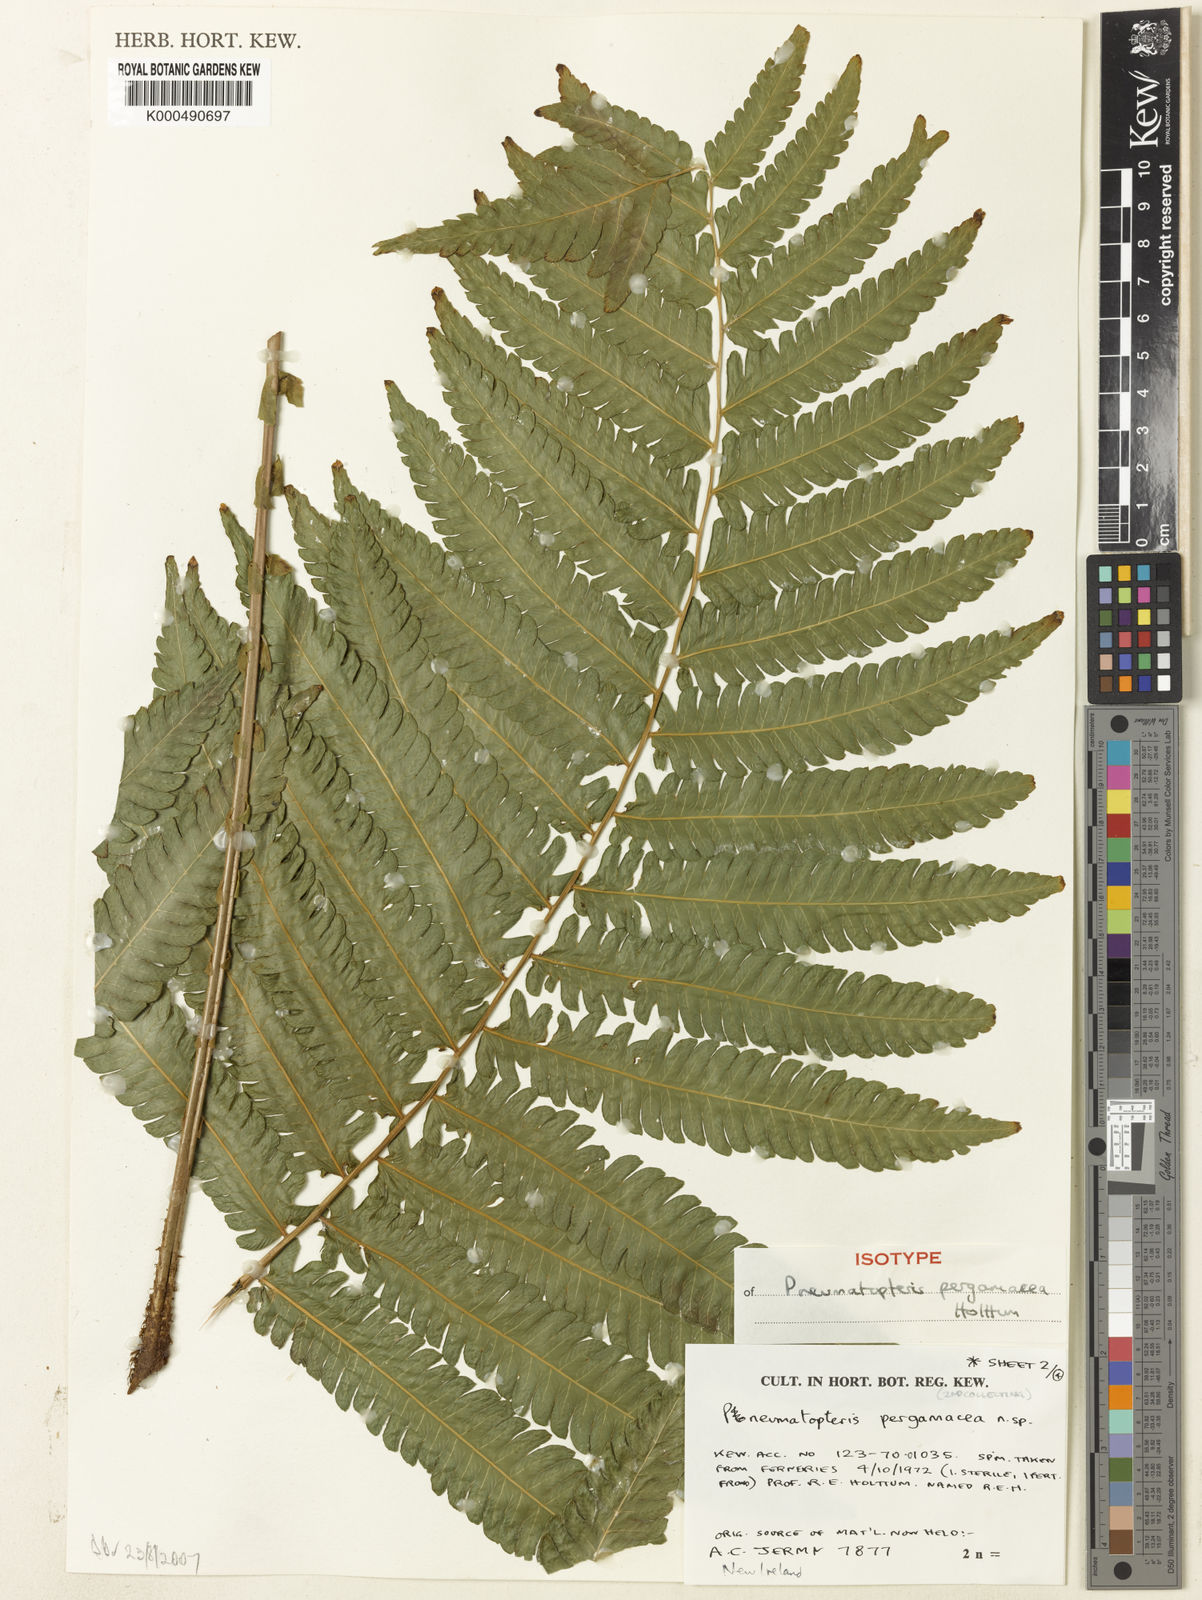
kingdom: Plantae
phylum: Tracheophyta
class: Polypodiopsida
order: Polypodiales
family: Thelypteridaceae
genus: Reholttumia
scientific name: Reholttumia pergamacea
